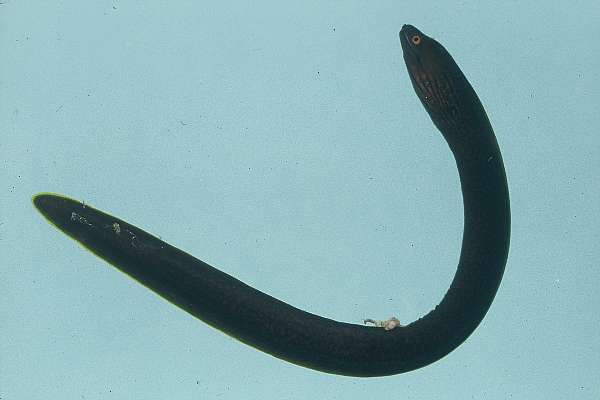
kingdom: Animalia
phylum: Chordata
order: Anguilliformes
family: Muraenidae
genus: Gymnothorax
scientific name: Gymnothorax flavimarginatus
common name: Yellow-edged moray
